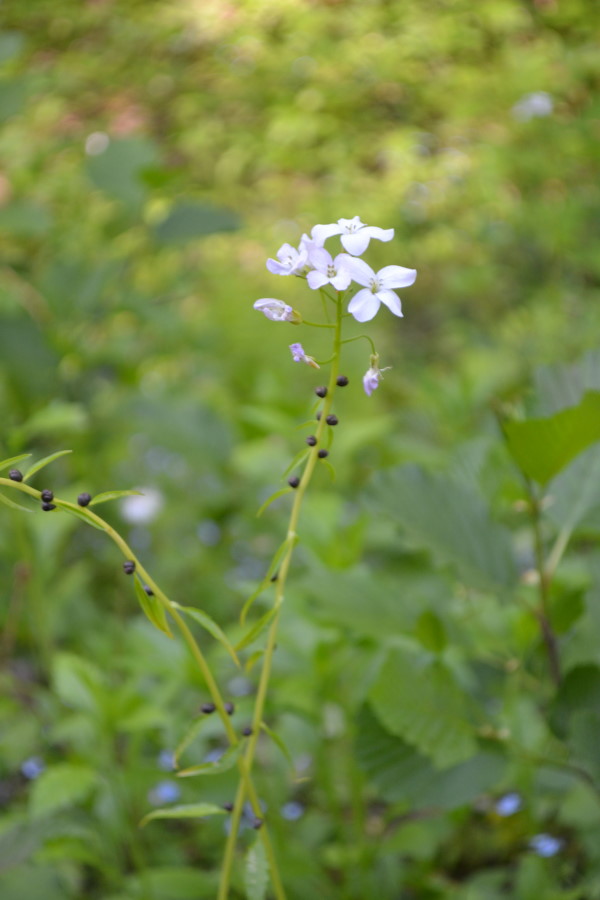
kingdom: Plantae
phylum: Tracheophyta
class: Magnoliopsida
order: Brassicales
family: Brassicaceae
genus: Cardamine
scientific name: Cardamine bulbifera
